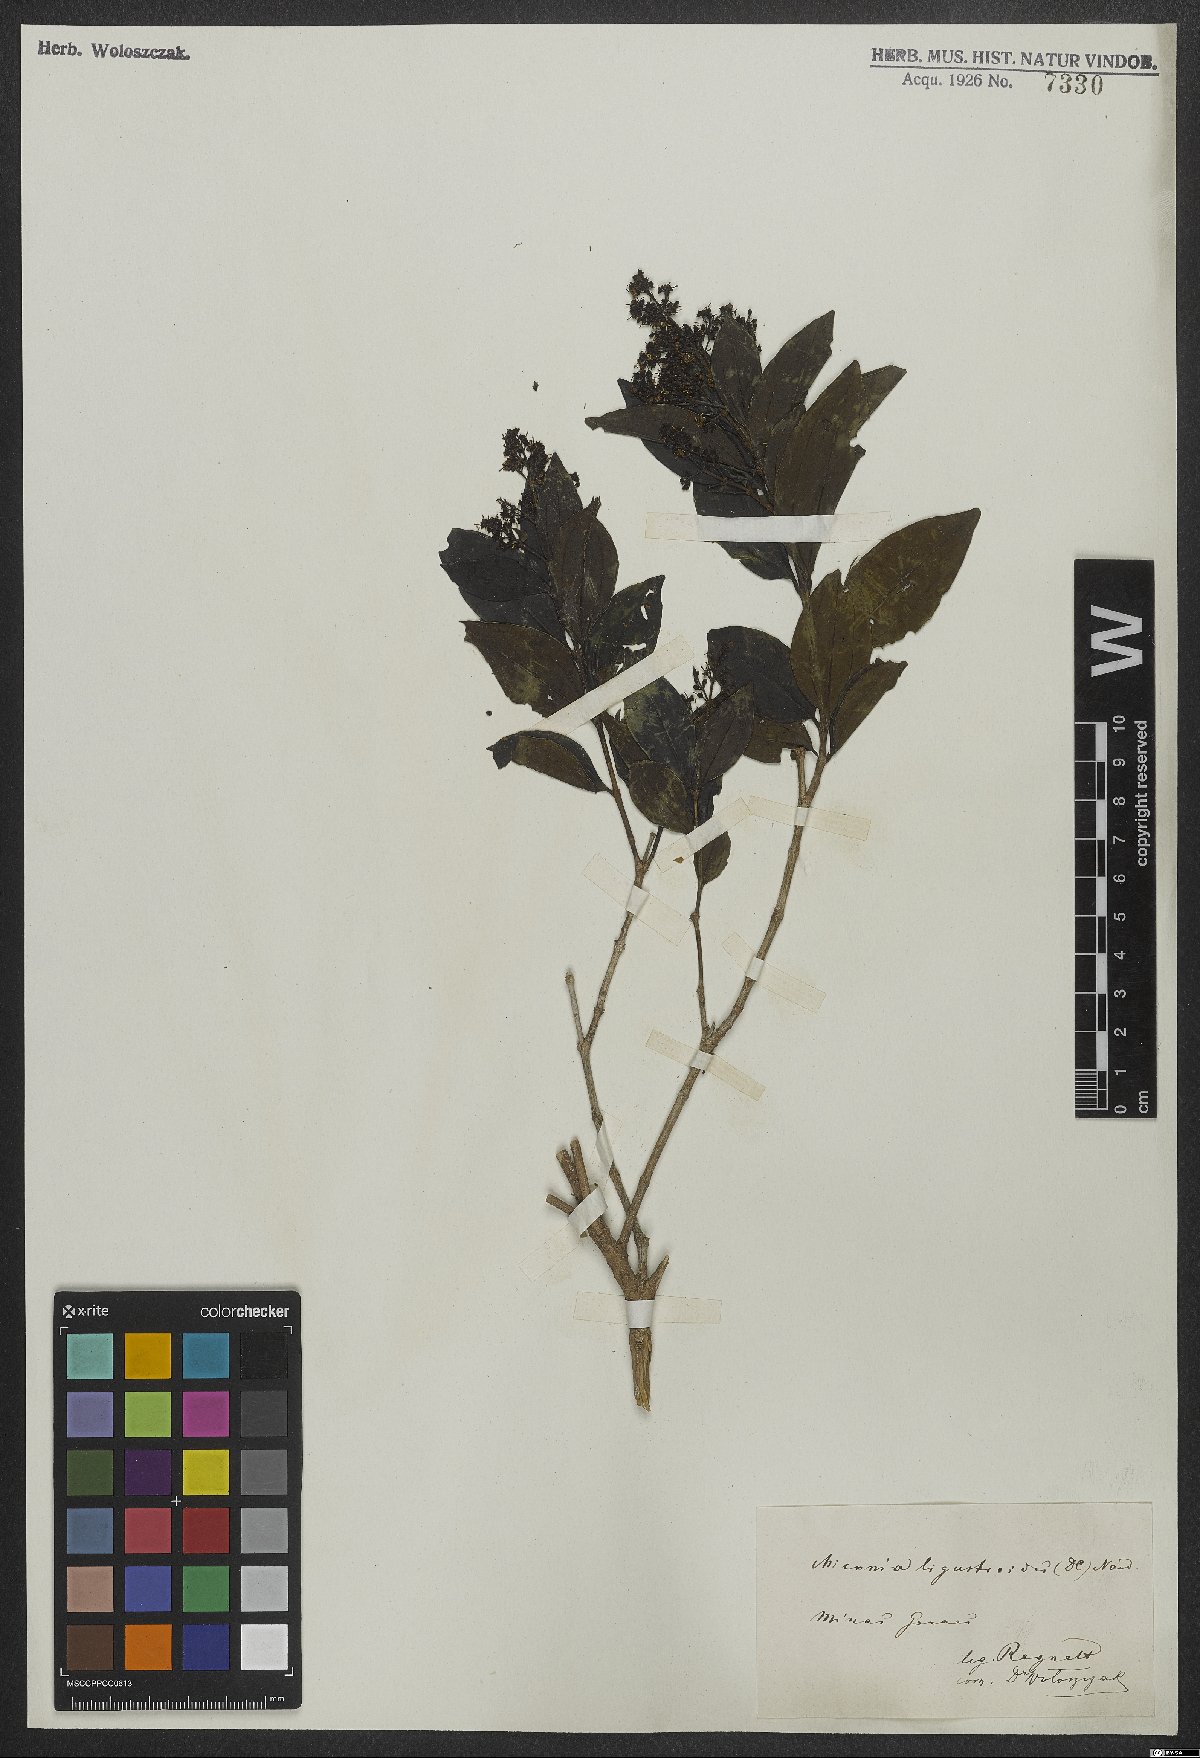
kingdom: Plantae
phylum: Tracheophyta
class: Magnoliopsida
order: Myrtales
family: Melastomataceae
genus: Miconia
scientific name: Miconia ligustroides
